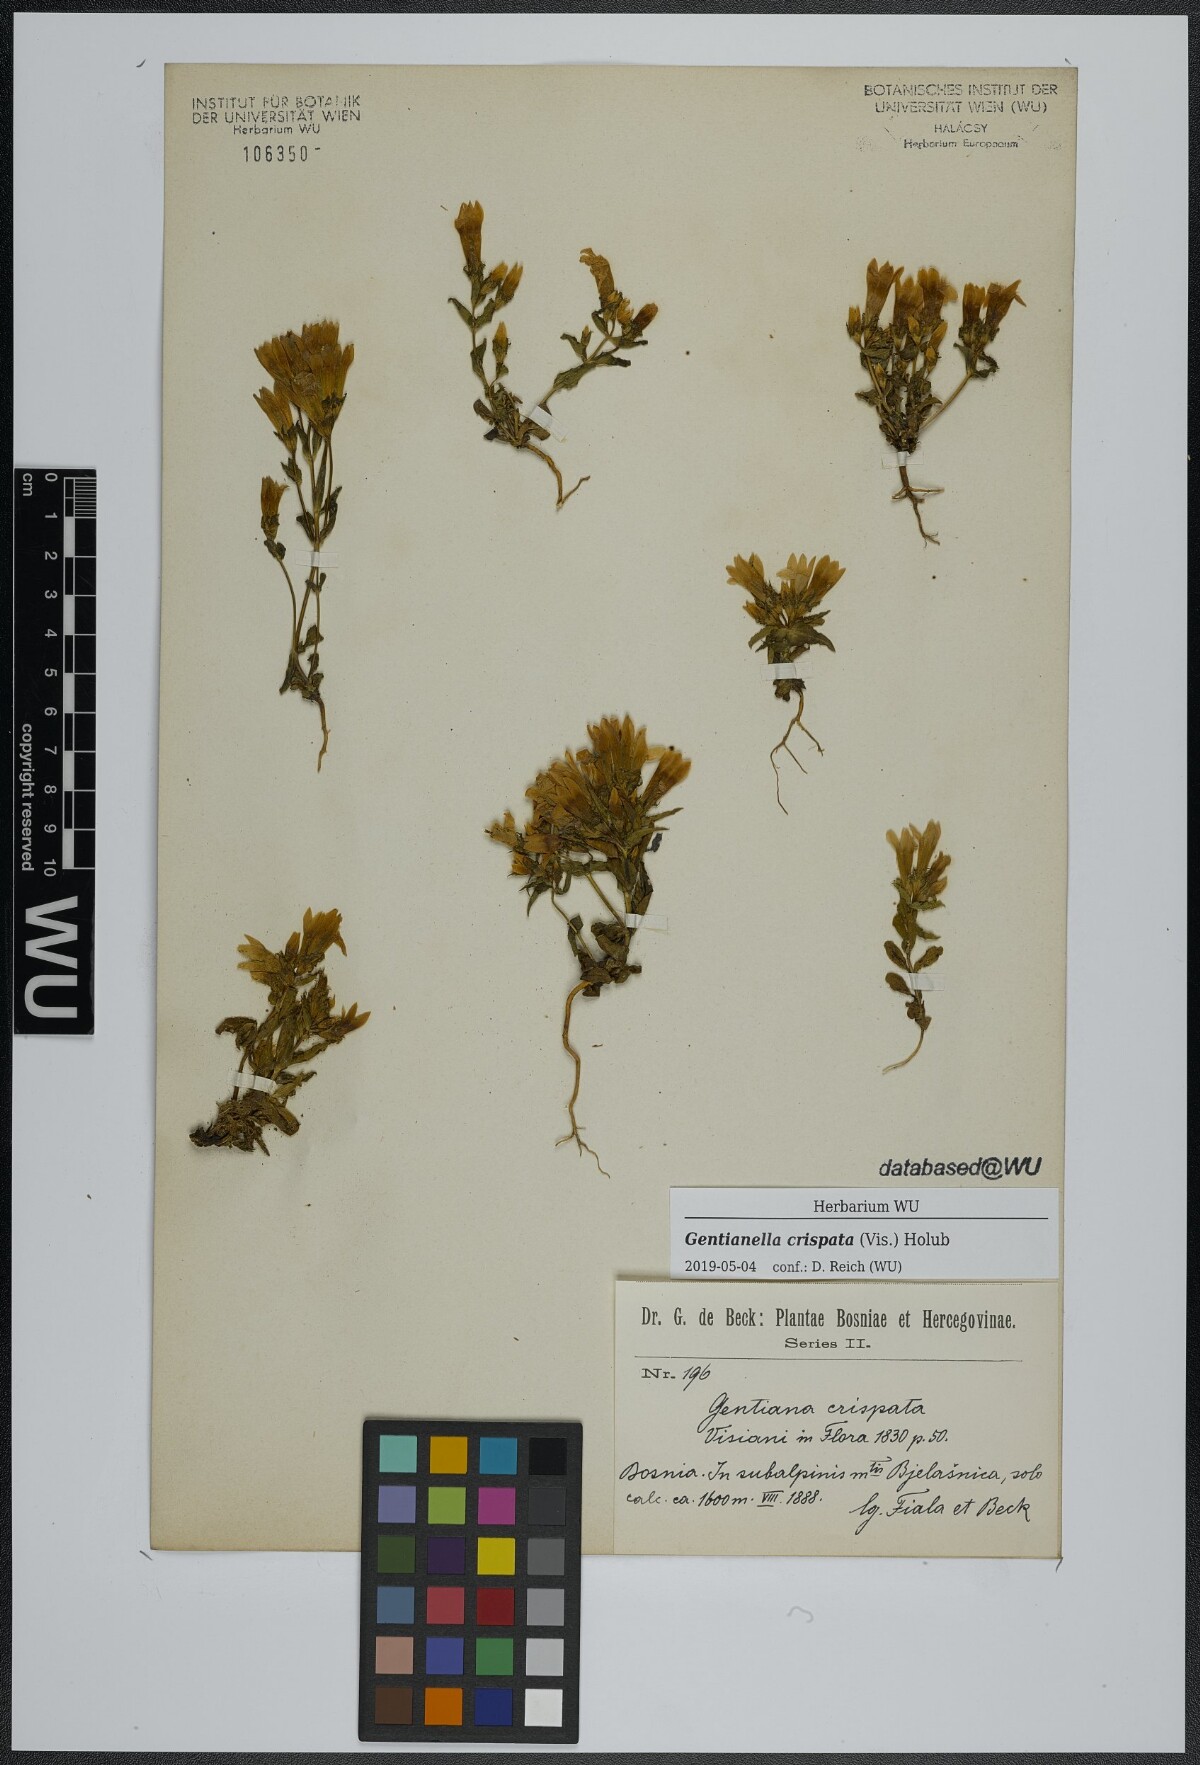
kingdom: Plantae
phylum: Tracheophyta
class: Magnoliopsida
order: Gentianales
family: Gentianaceae
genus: Gentianella
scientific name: Gentianella crispata
